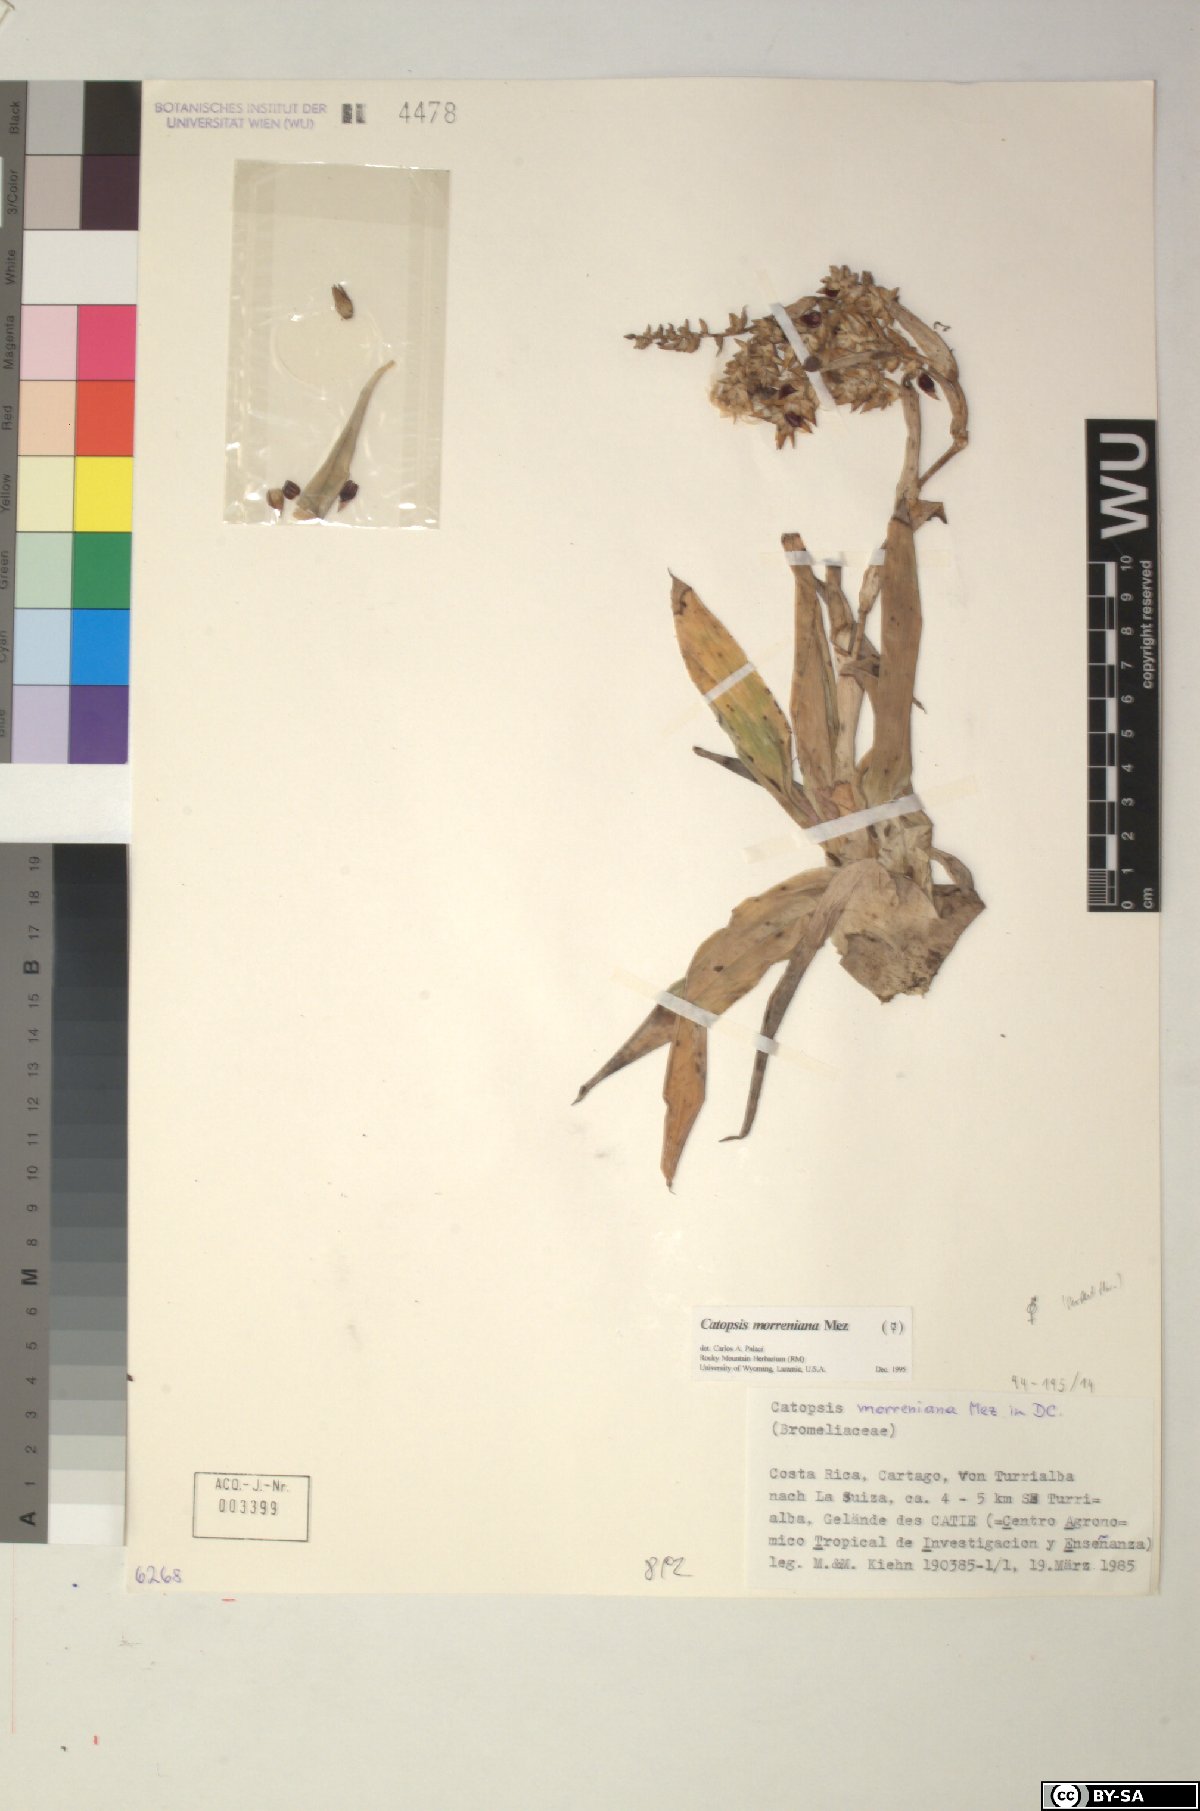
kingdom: Plantae
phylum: Tracheophyta
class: Liliopsida
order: Poales
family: Bromeliaceae
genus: Catopsis
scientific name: Catopsis morreniana
